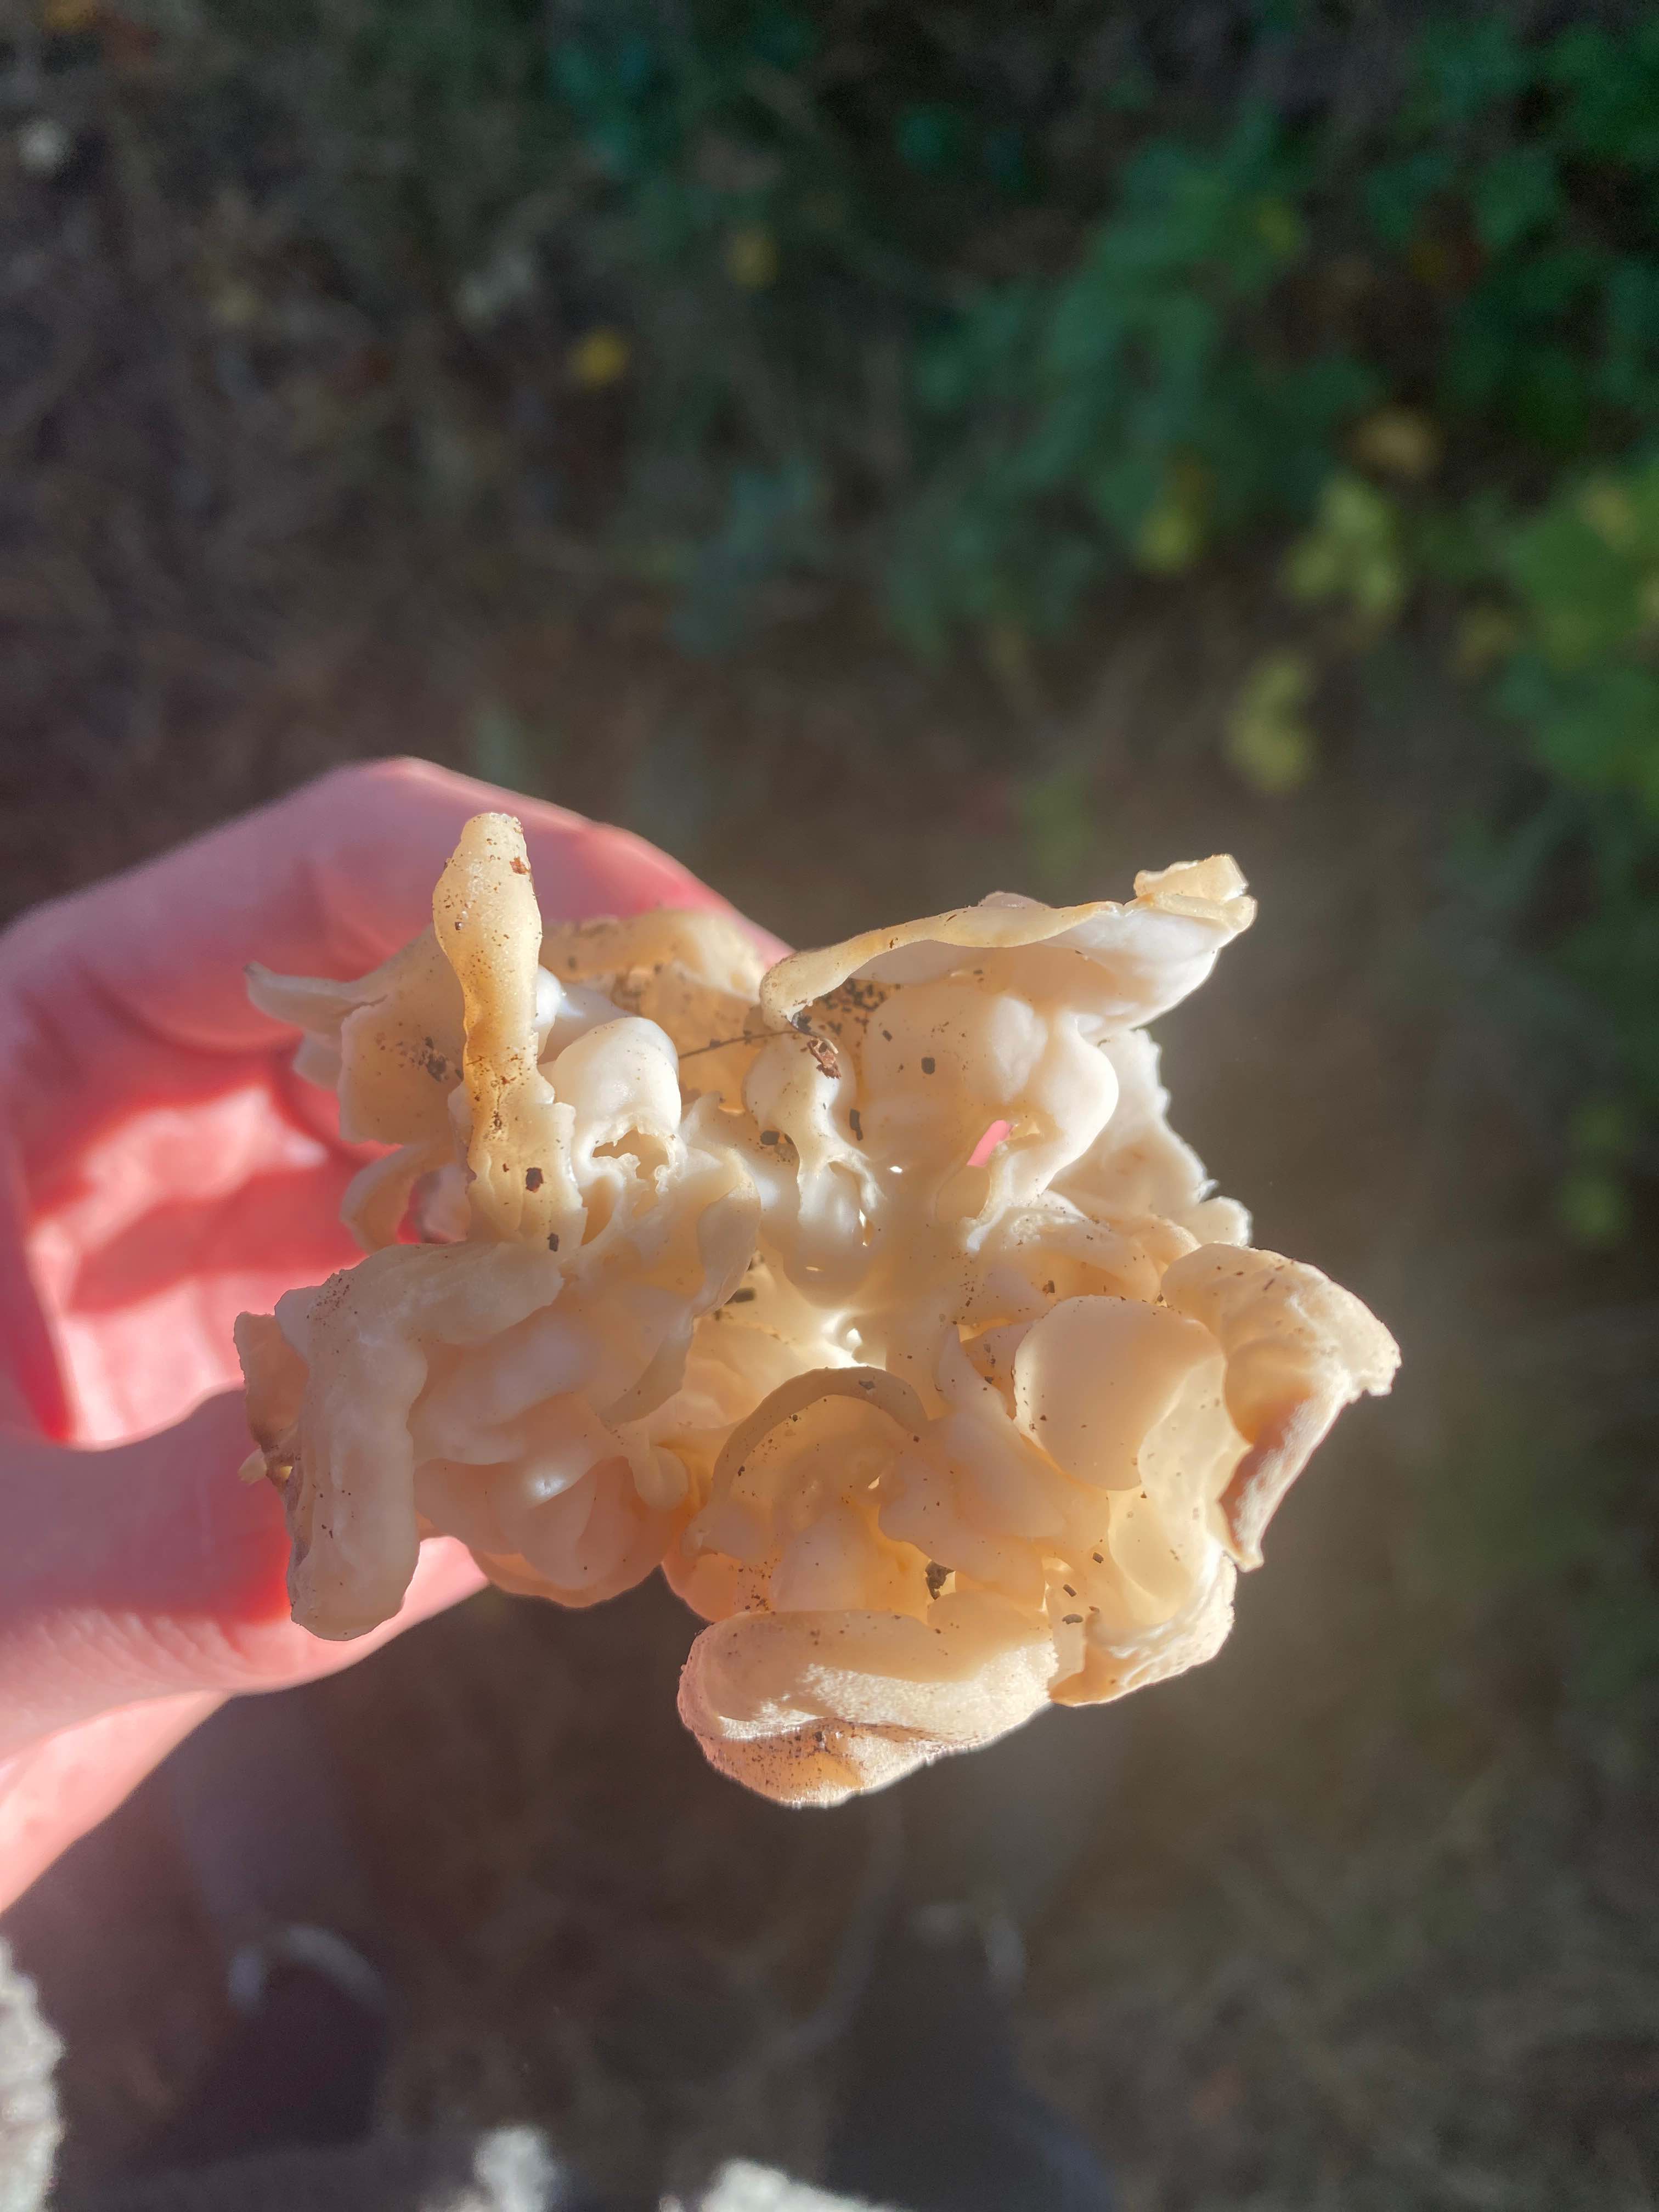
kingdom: Fungi
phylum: Ascomycota
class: Pezizomycetes
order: Pezizales
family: Helvellaceae
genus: Helvella
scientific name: Helvella crispa
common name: kruset foldhat
